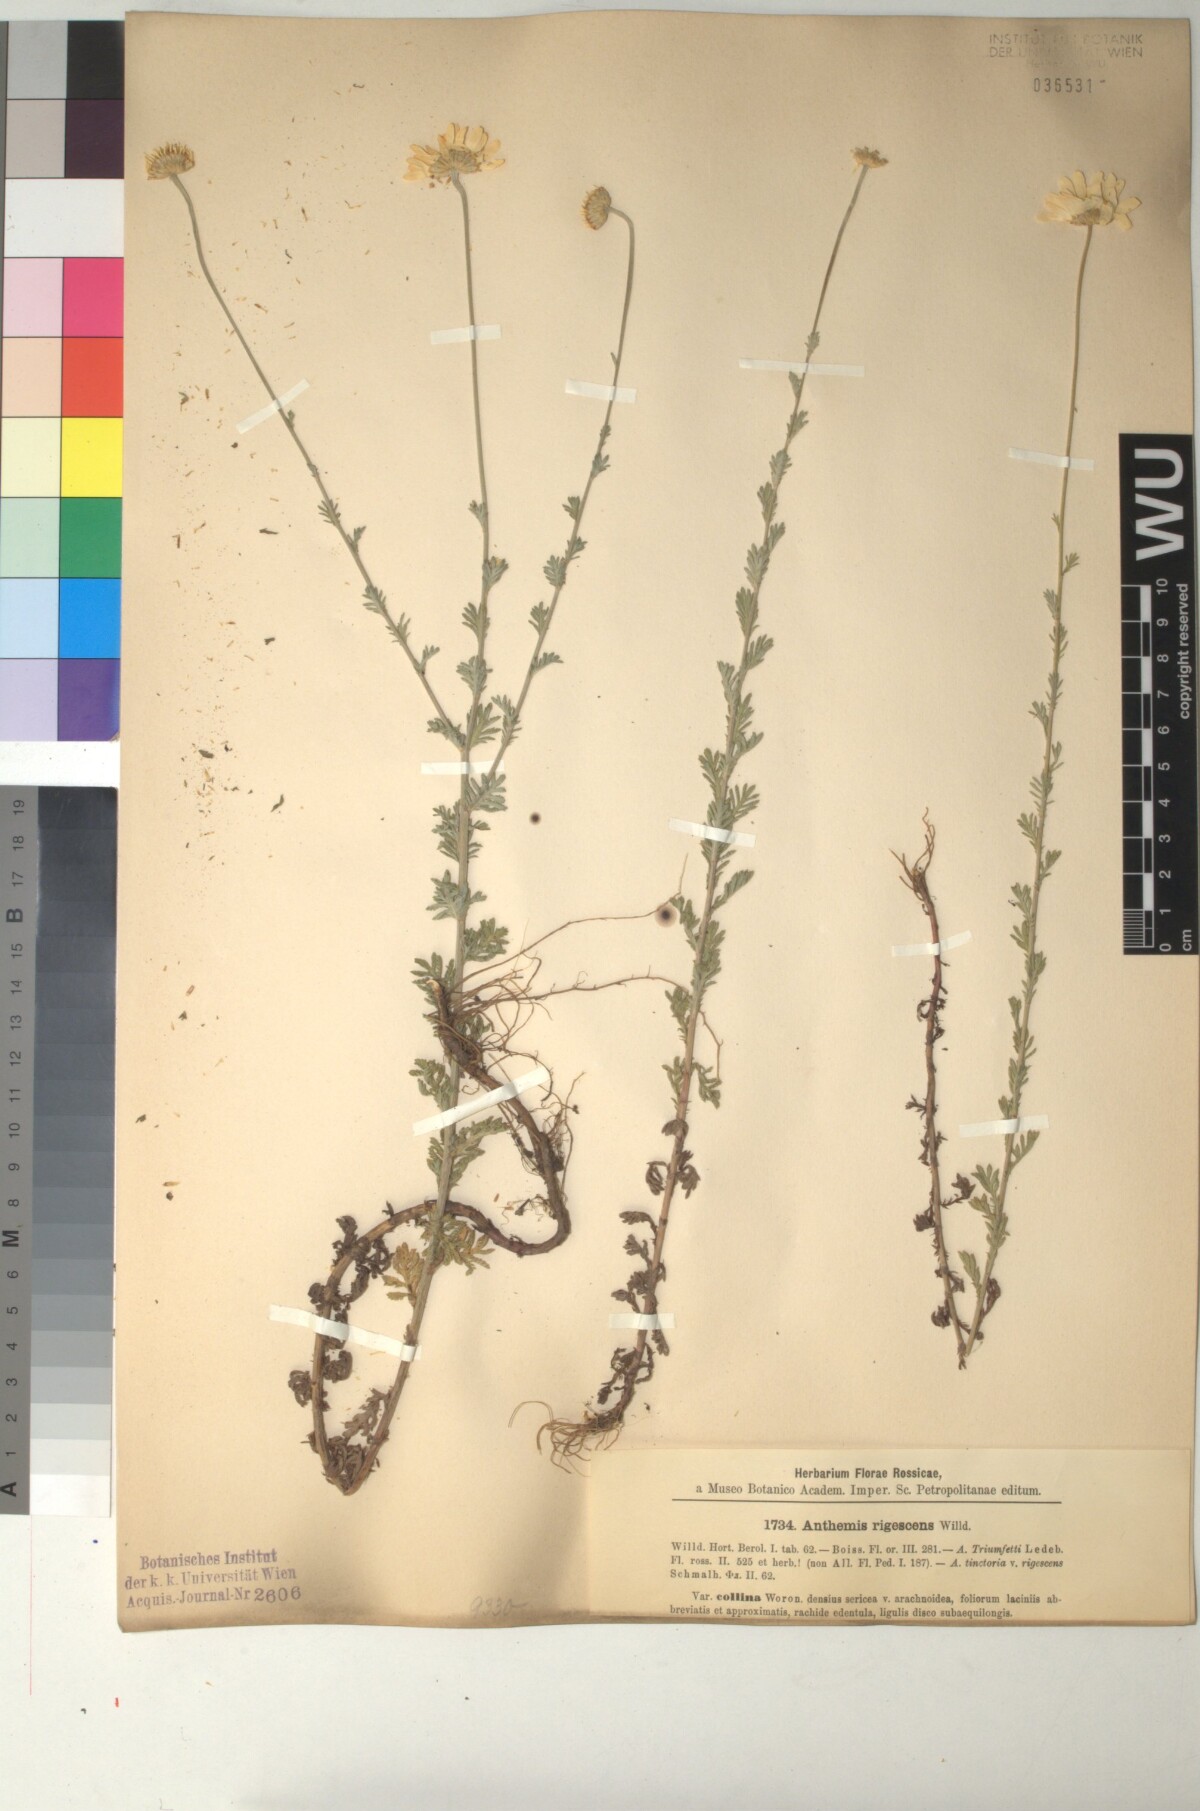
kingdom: Plantae
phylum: Tracheophyta
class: Magnoliopsida
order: Asterales
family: Asteraceae
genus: Cota
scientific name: Cota triumfetti
